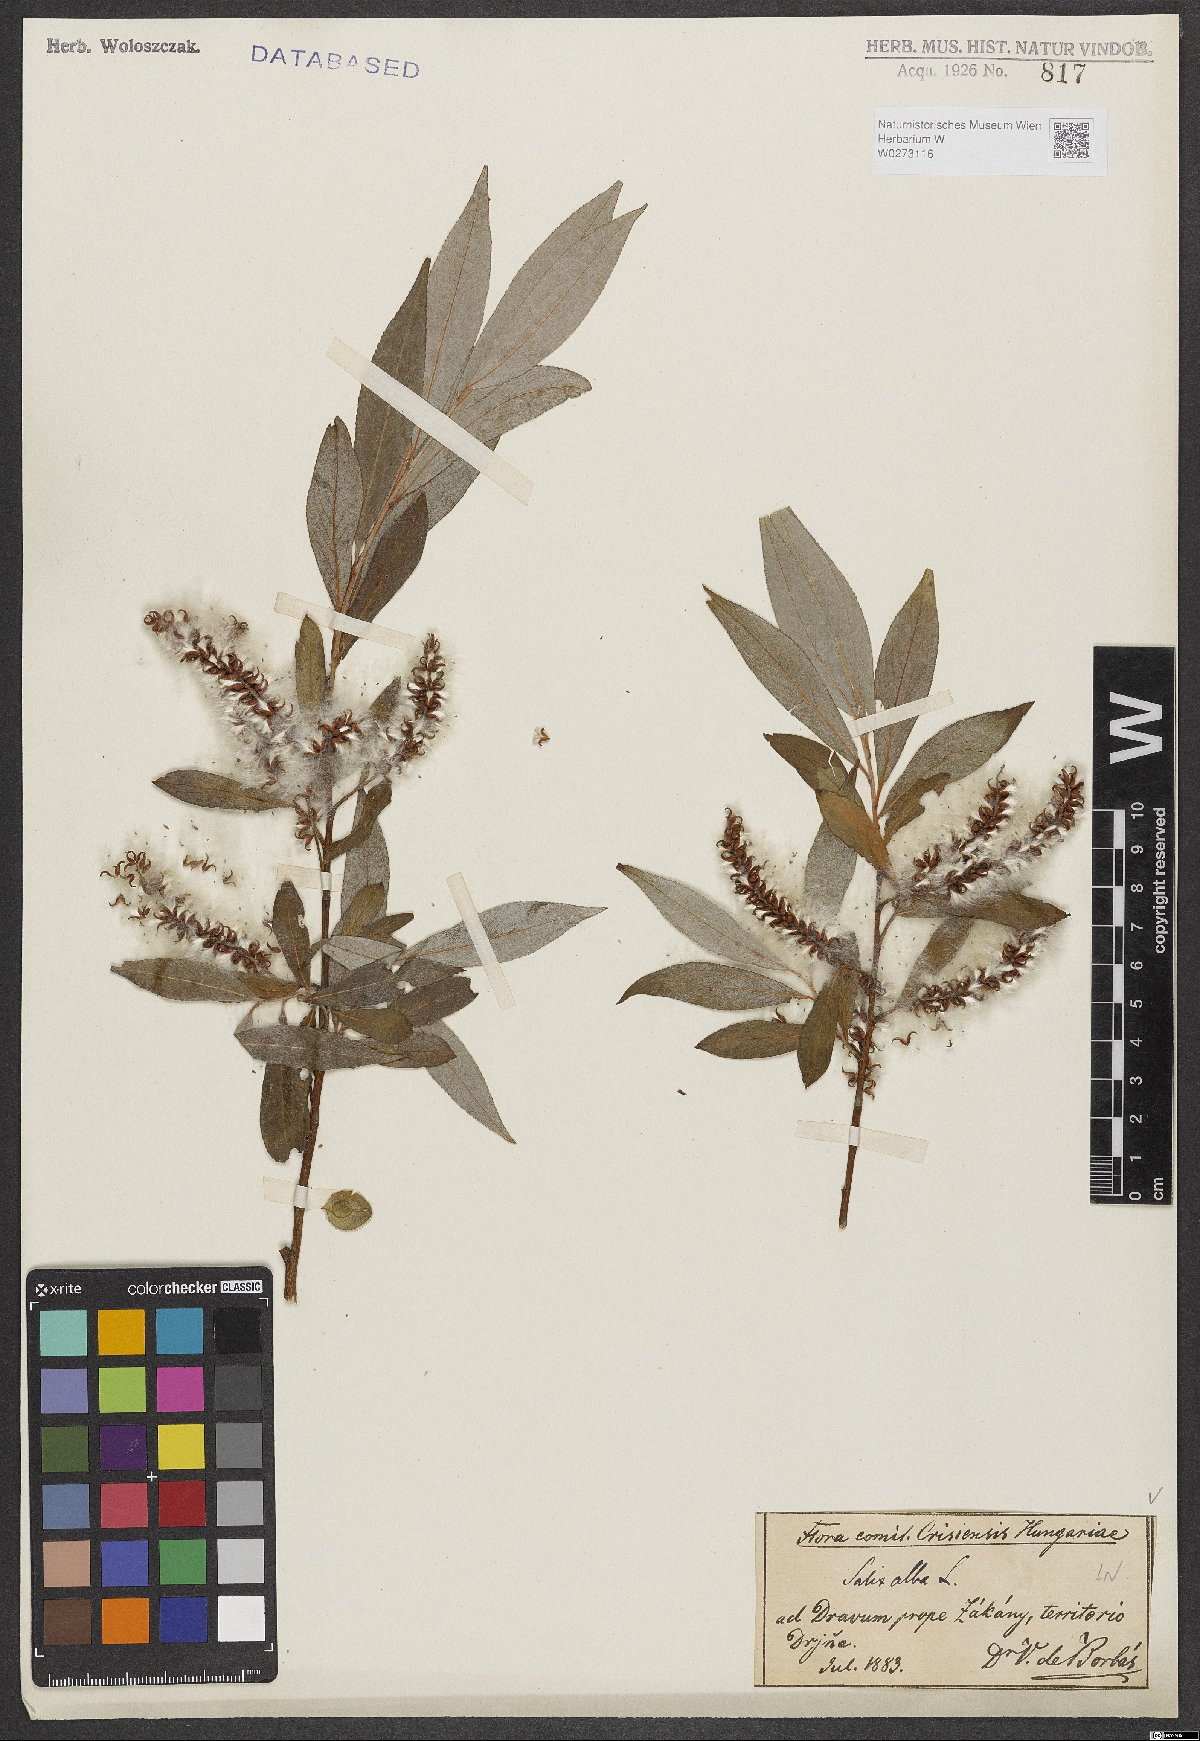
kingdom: Plantae
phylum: Tracheophyta
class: Magnoliopsida
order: Malpighiales
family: Salicaceae
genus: Salix
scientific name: Salix alba
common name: White willow
